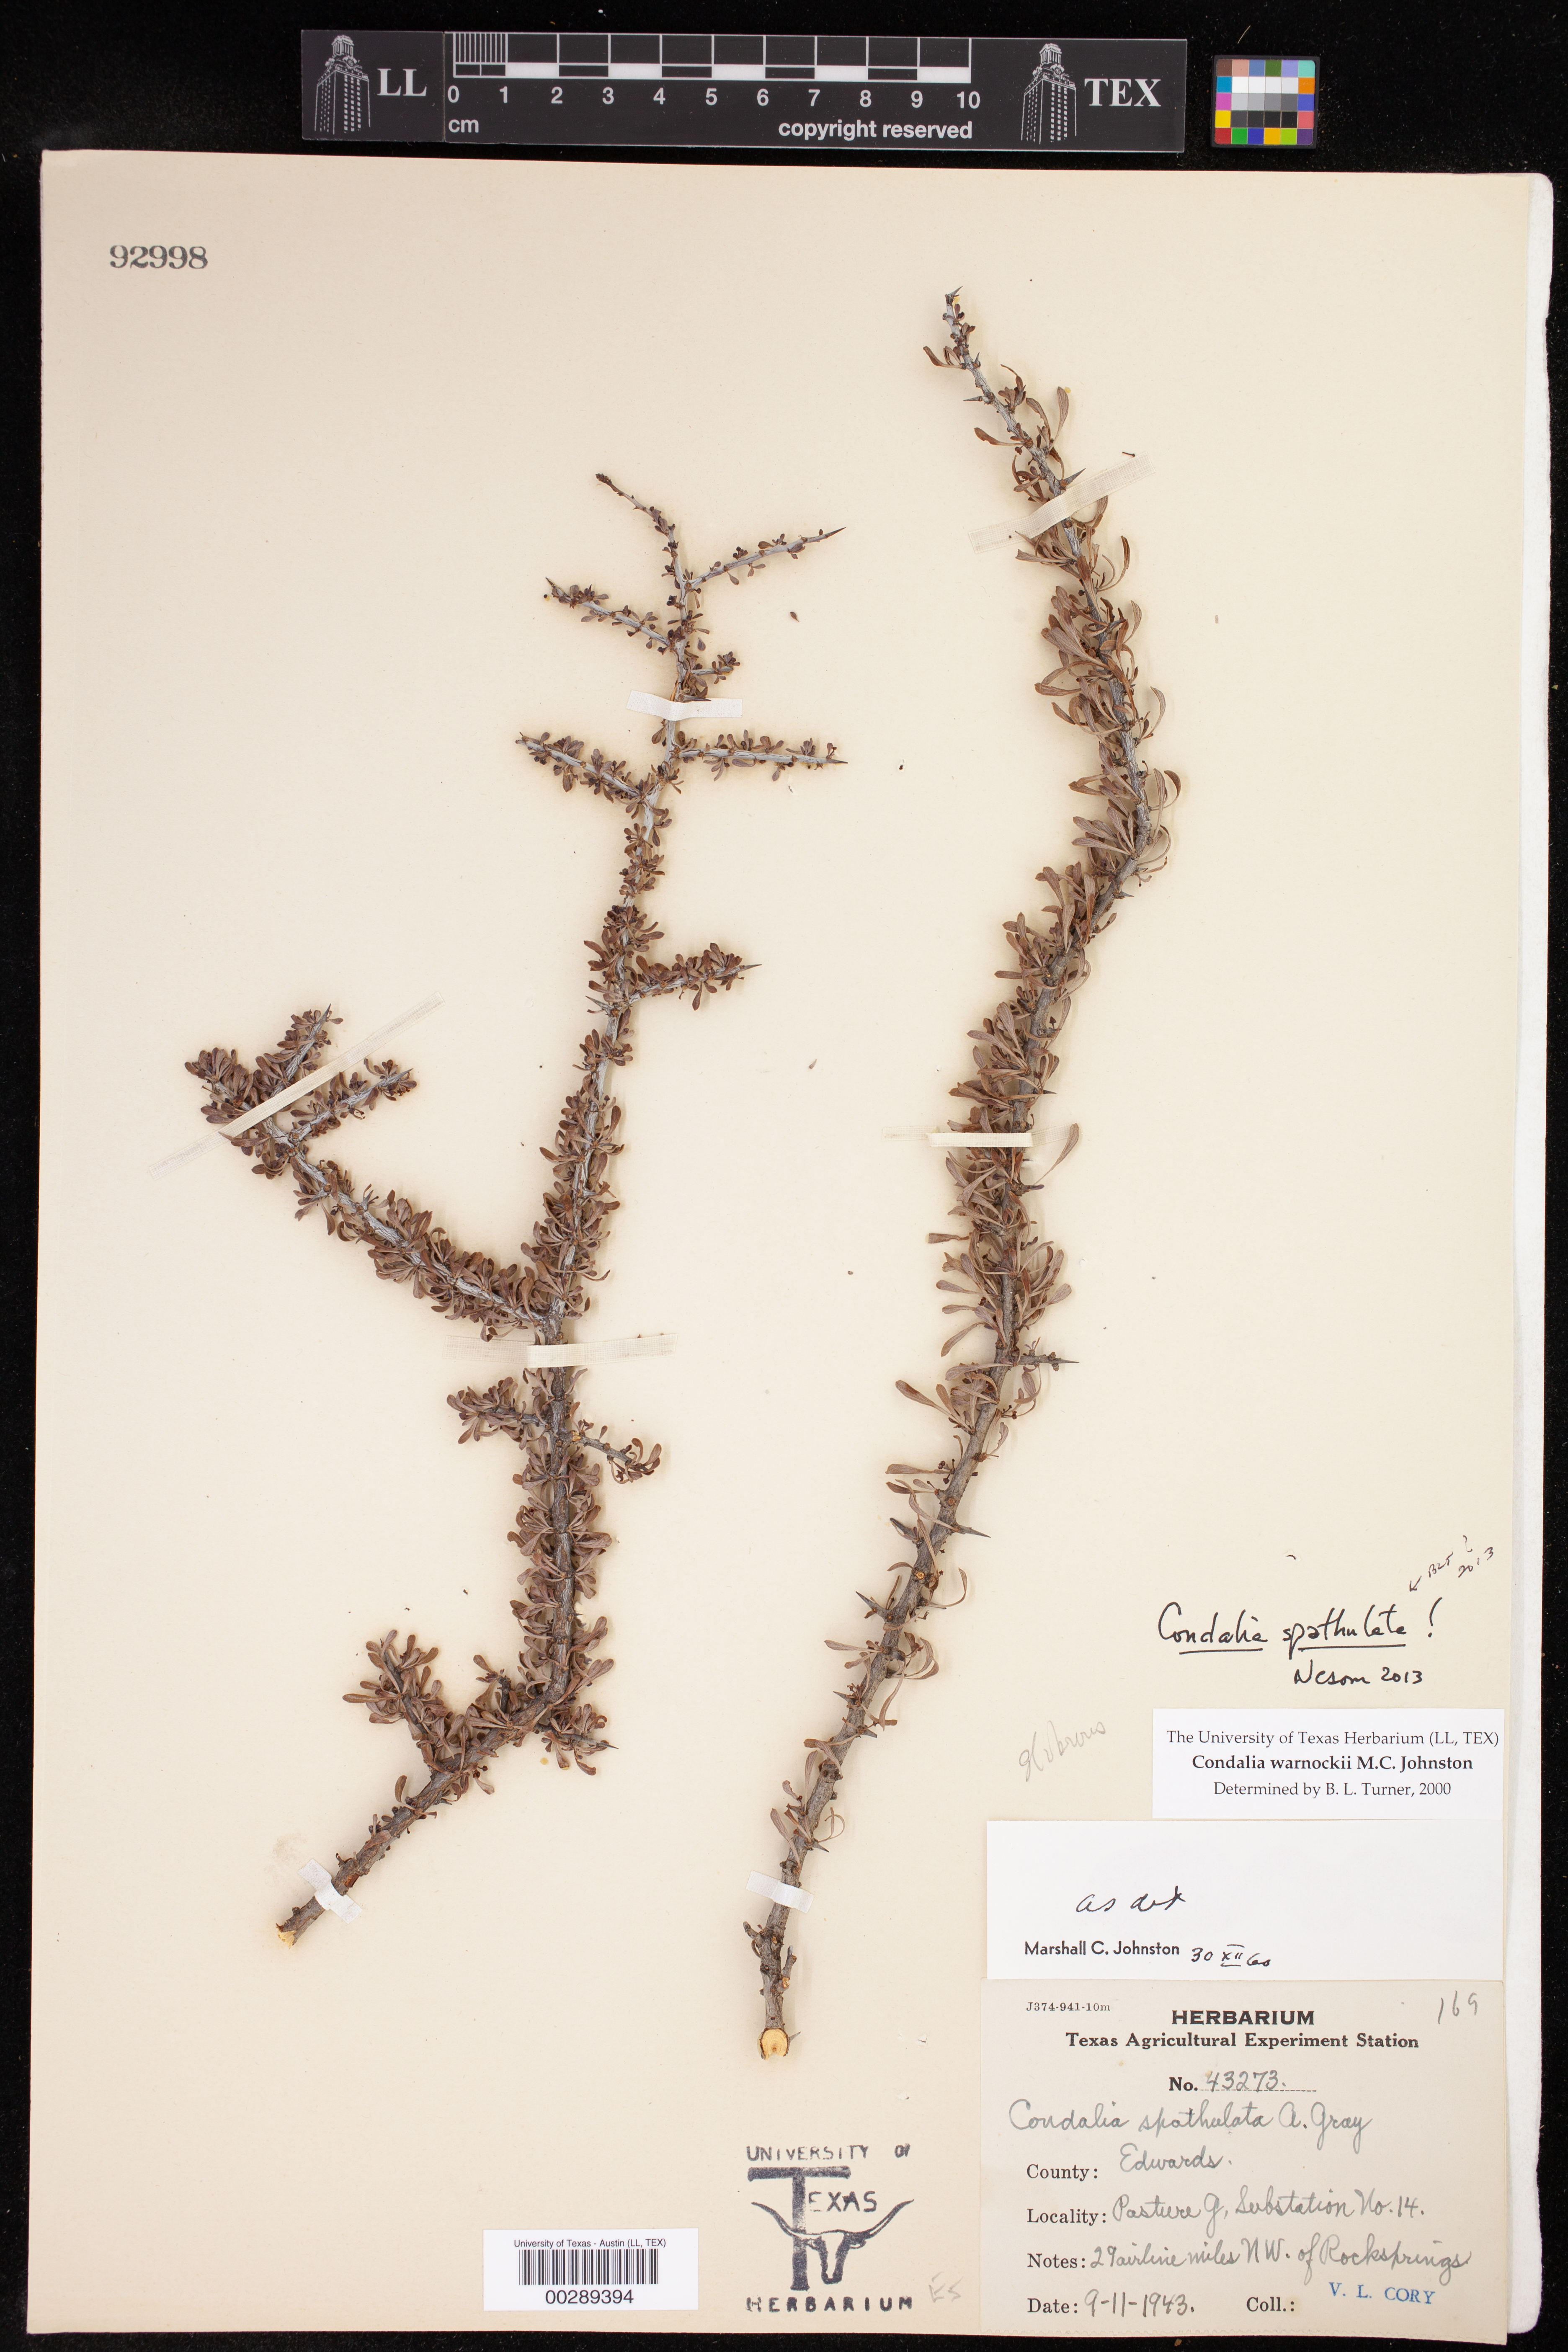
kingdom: Plantae
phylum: Tracheophyta
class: Magnoliopsida
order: Rosales
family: Rhamnaceae
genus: Condalia
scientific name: Condalia spathulata
